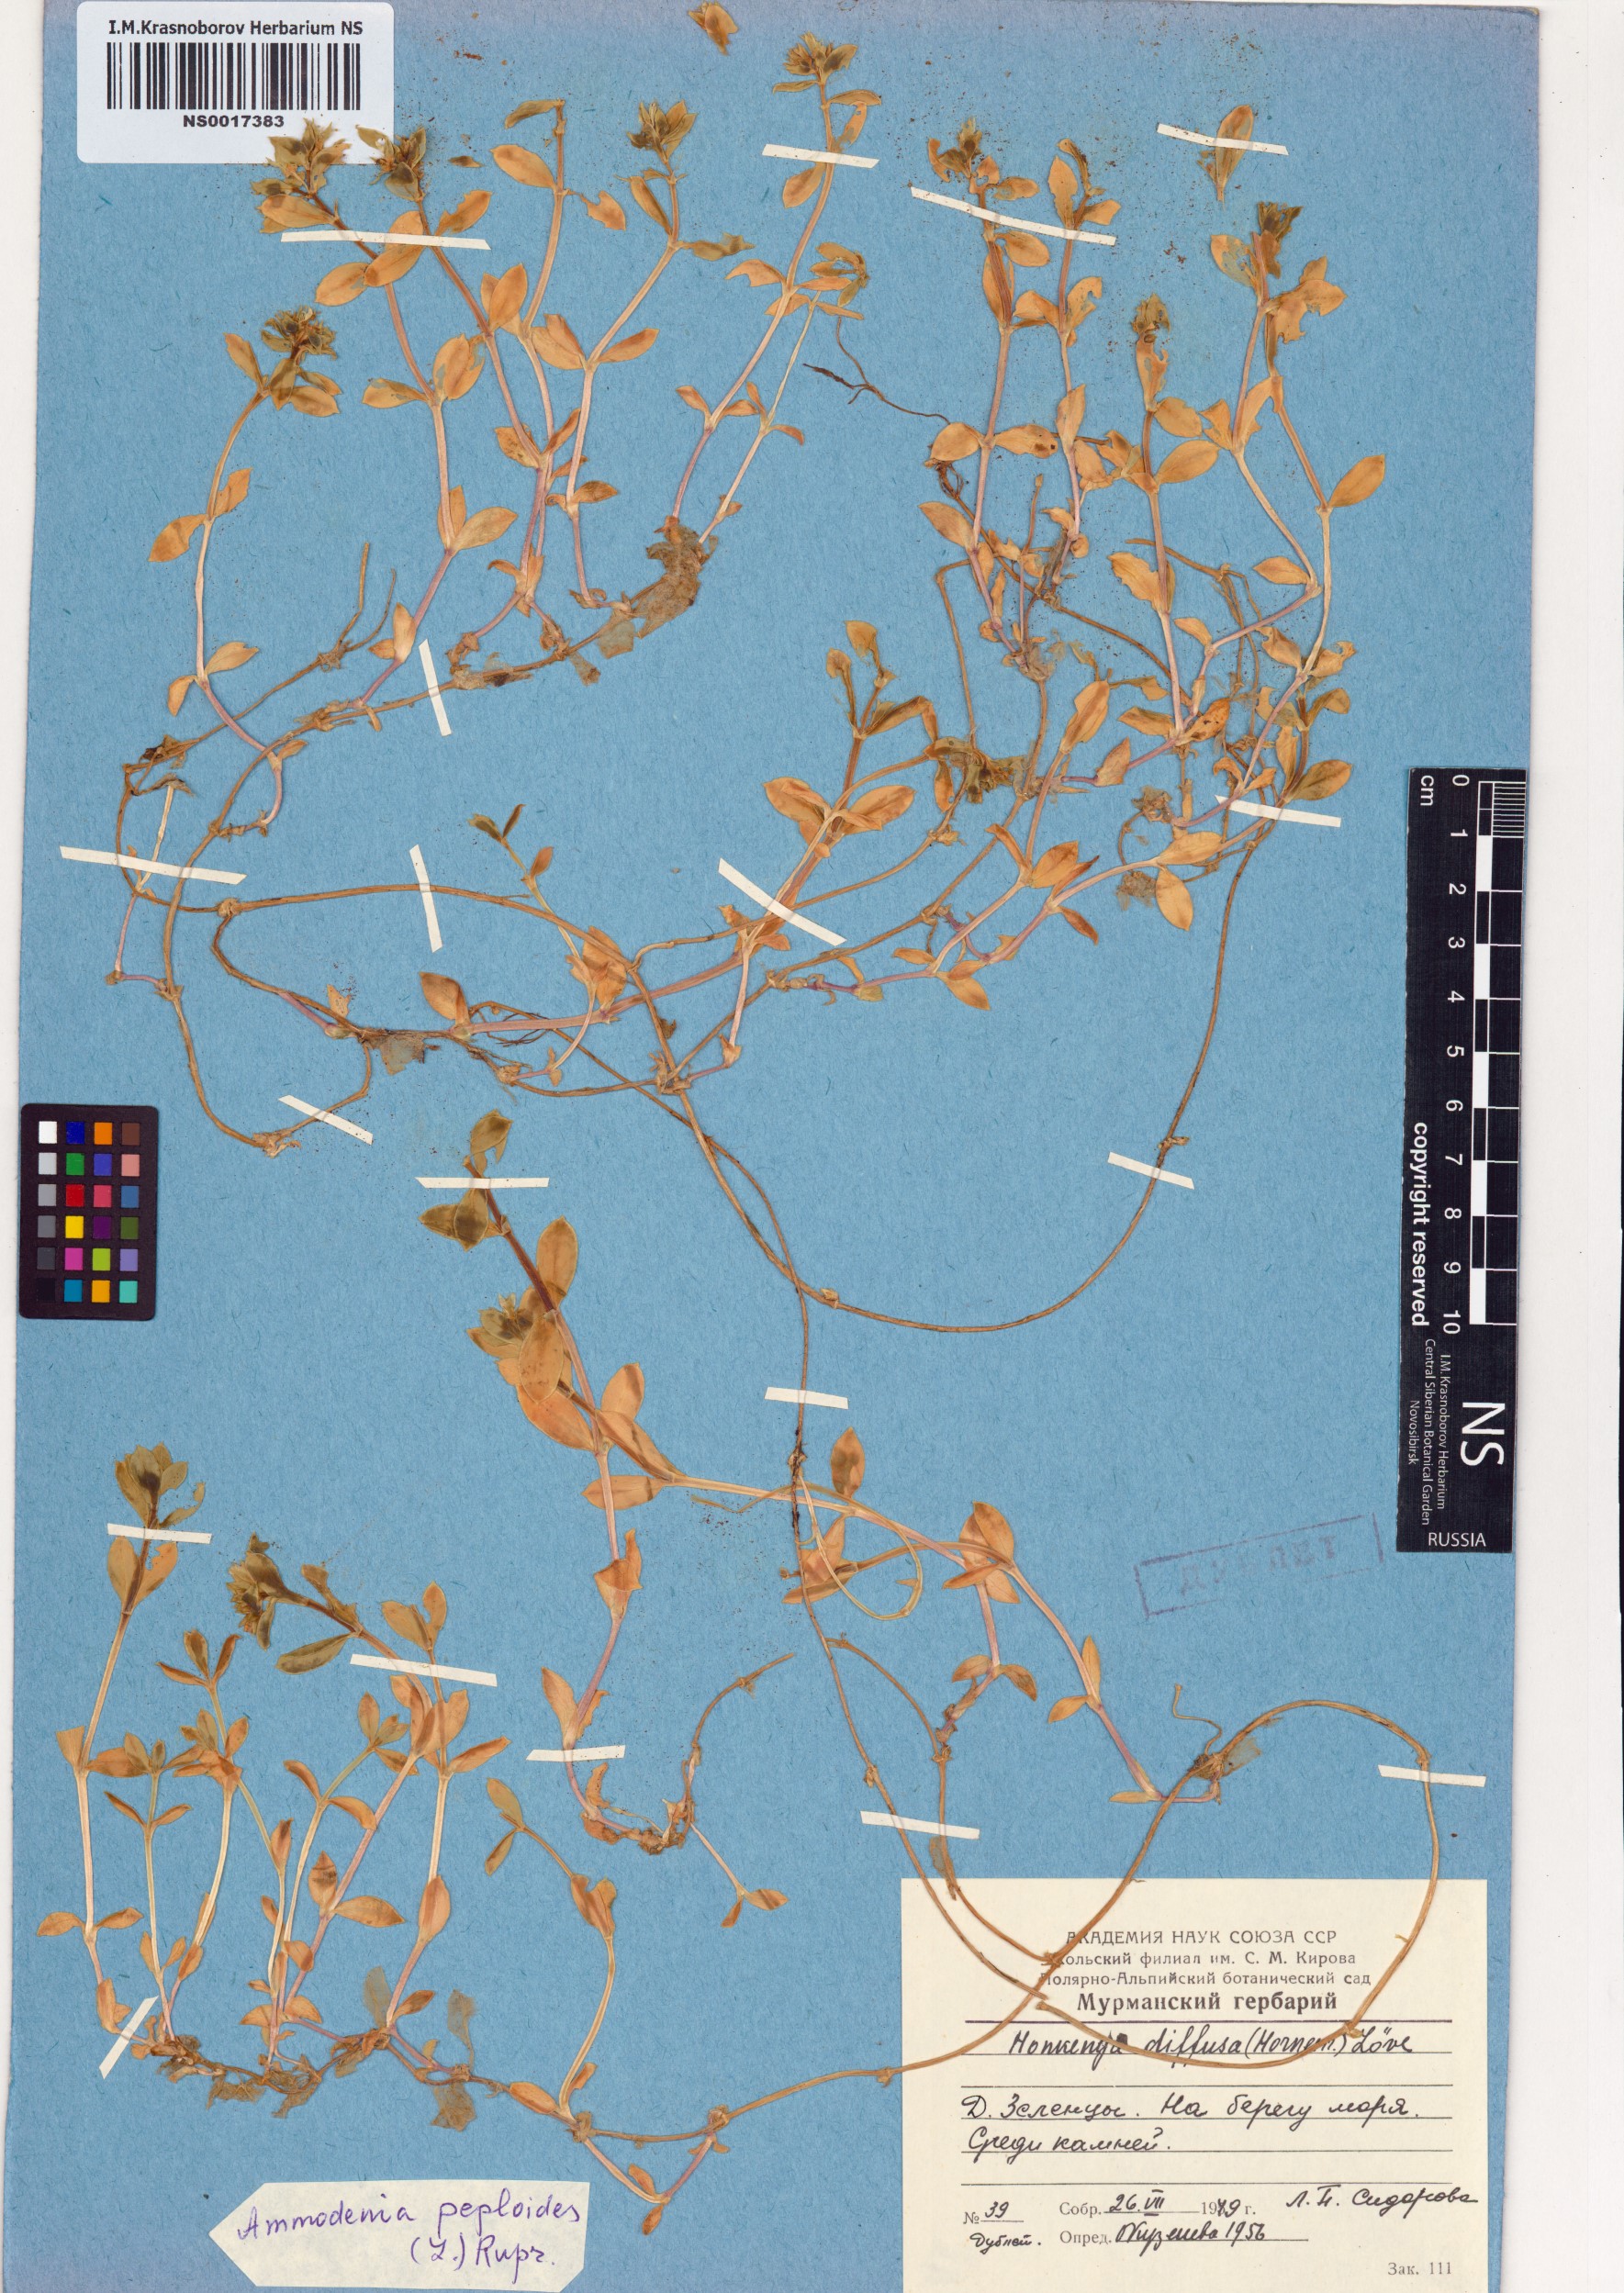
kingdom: Plantae
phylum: Tracheophyta
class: Magnoliopsida
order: Caryophyllales
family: Caryophyllaceae
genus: Honckenya
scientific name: Honckenya peploides
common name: Sea sandwort
